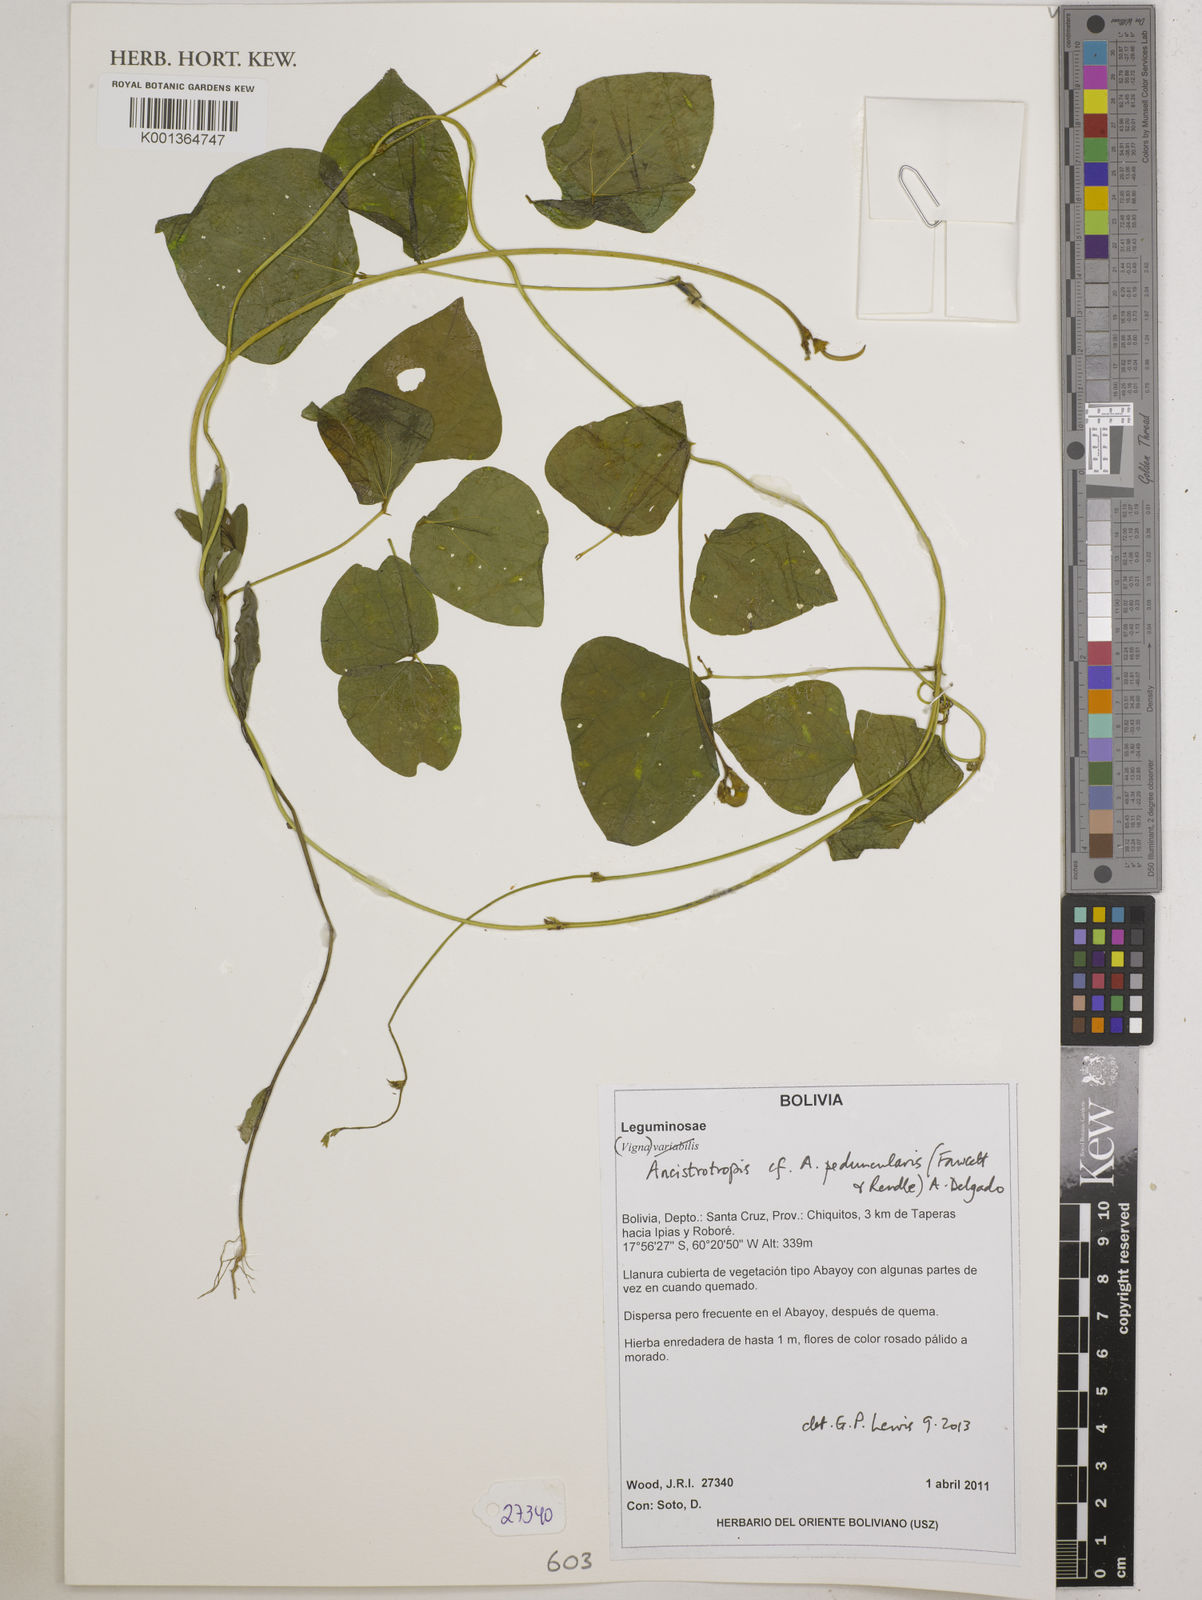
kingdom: Plantae
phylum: Tracheophyta
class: Magnoliopsida
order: Fabales
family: Fabaceae
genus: Ancistrotropis
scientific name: Ancistrotropis peduncularis
